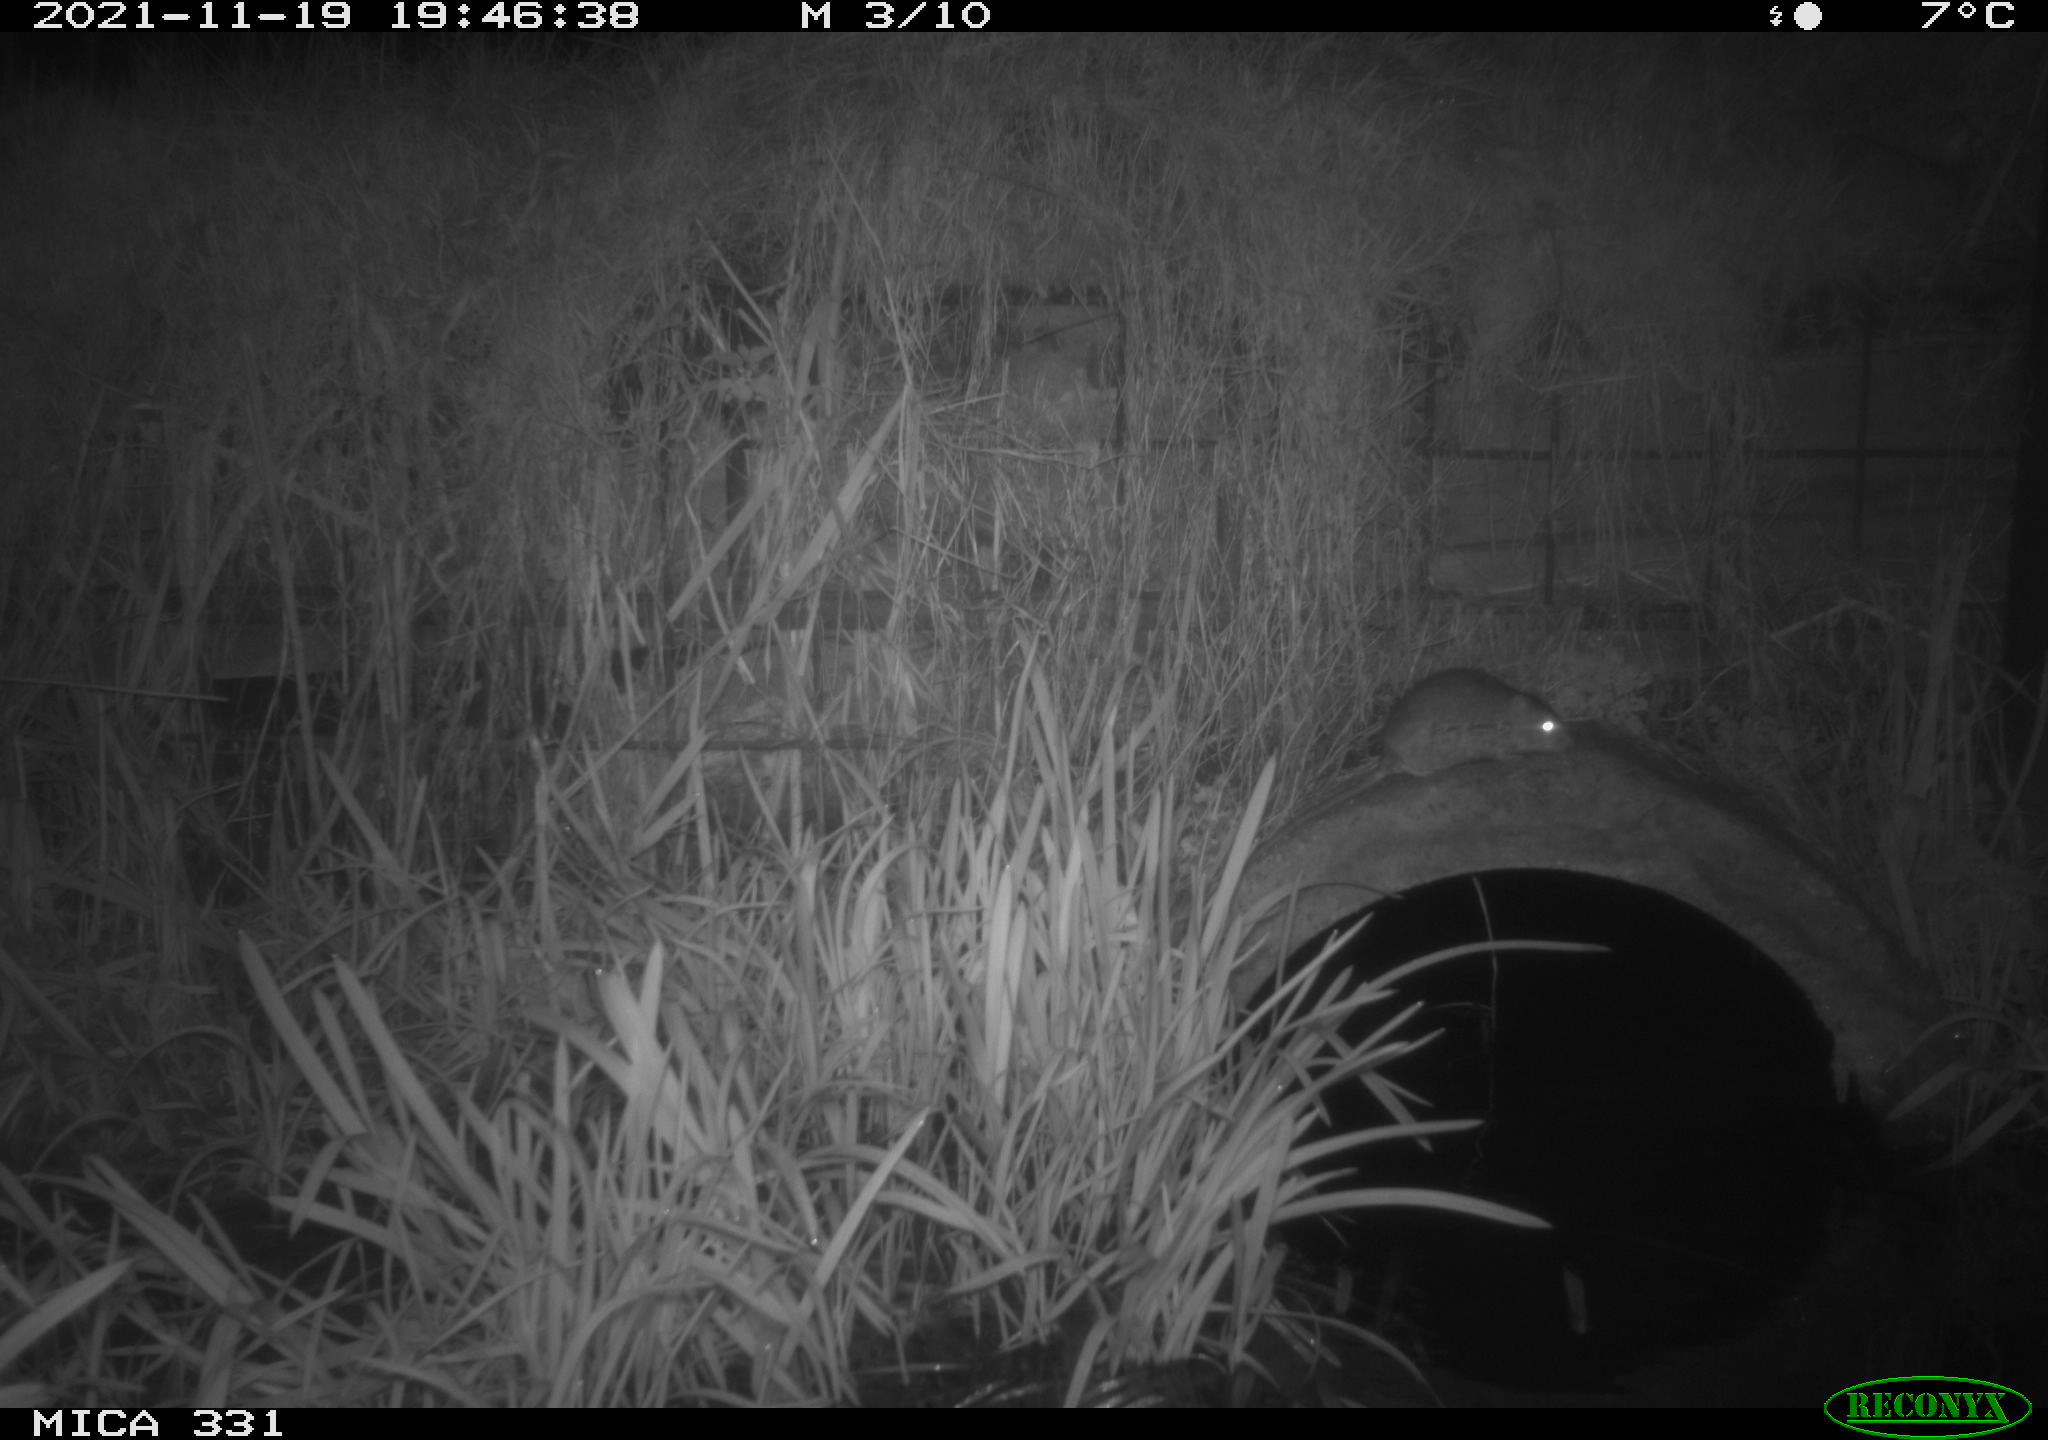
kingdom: Animalia
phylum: Chordata
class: Mammalia
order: Rodentia
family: Muridae
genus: Rattus
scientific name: Rattus norvegicus
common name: Brown rat
